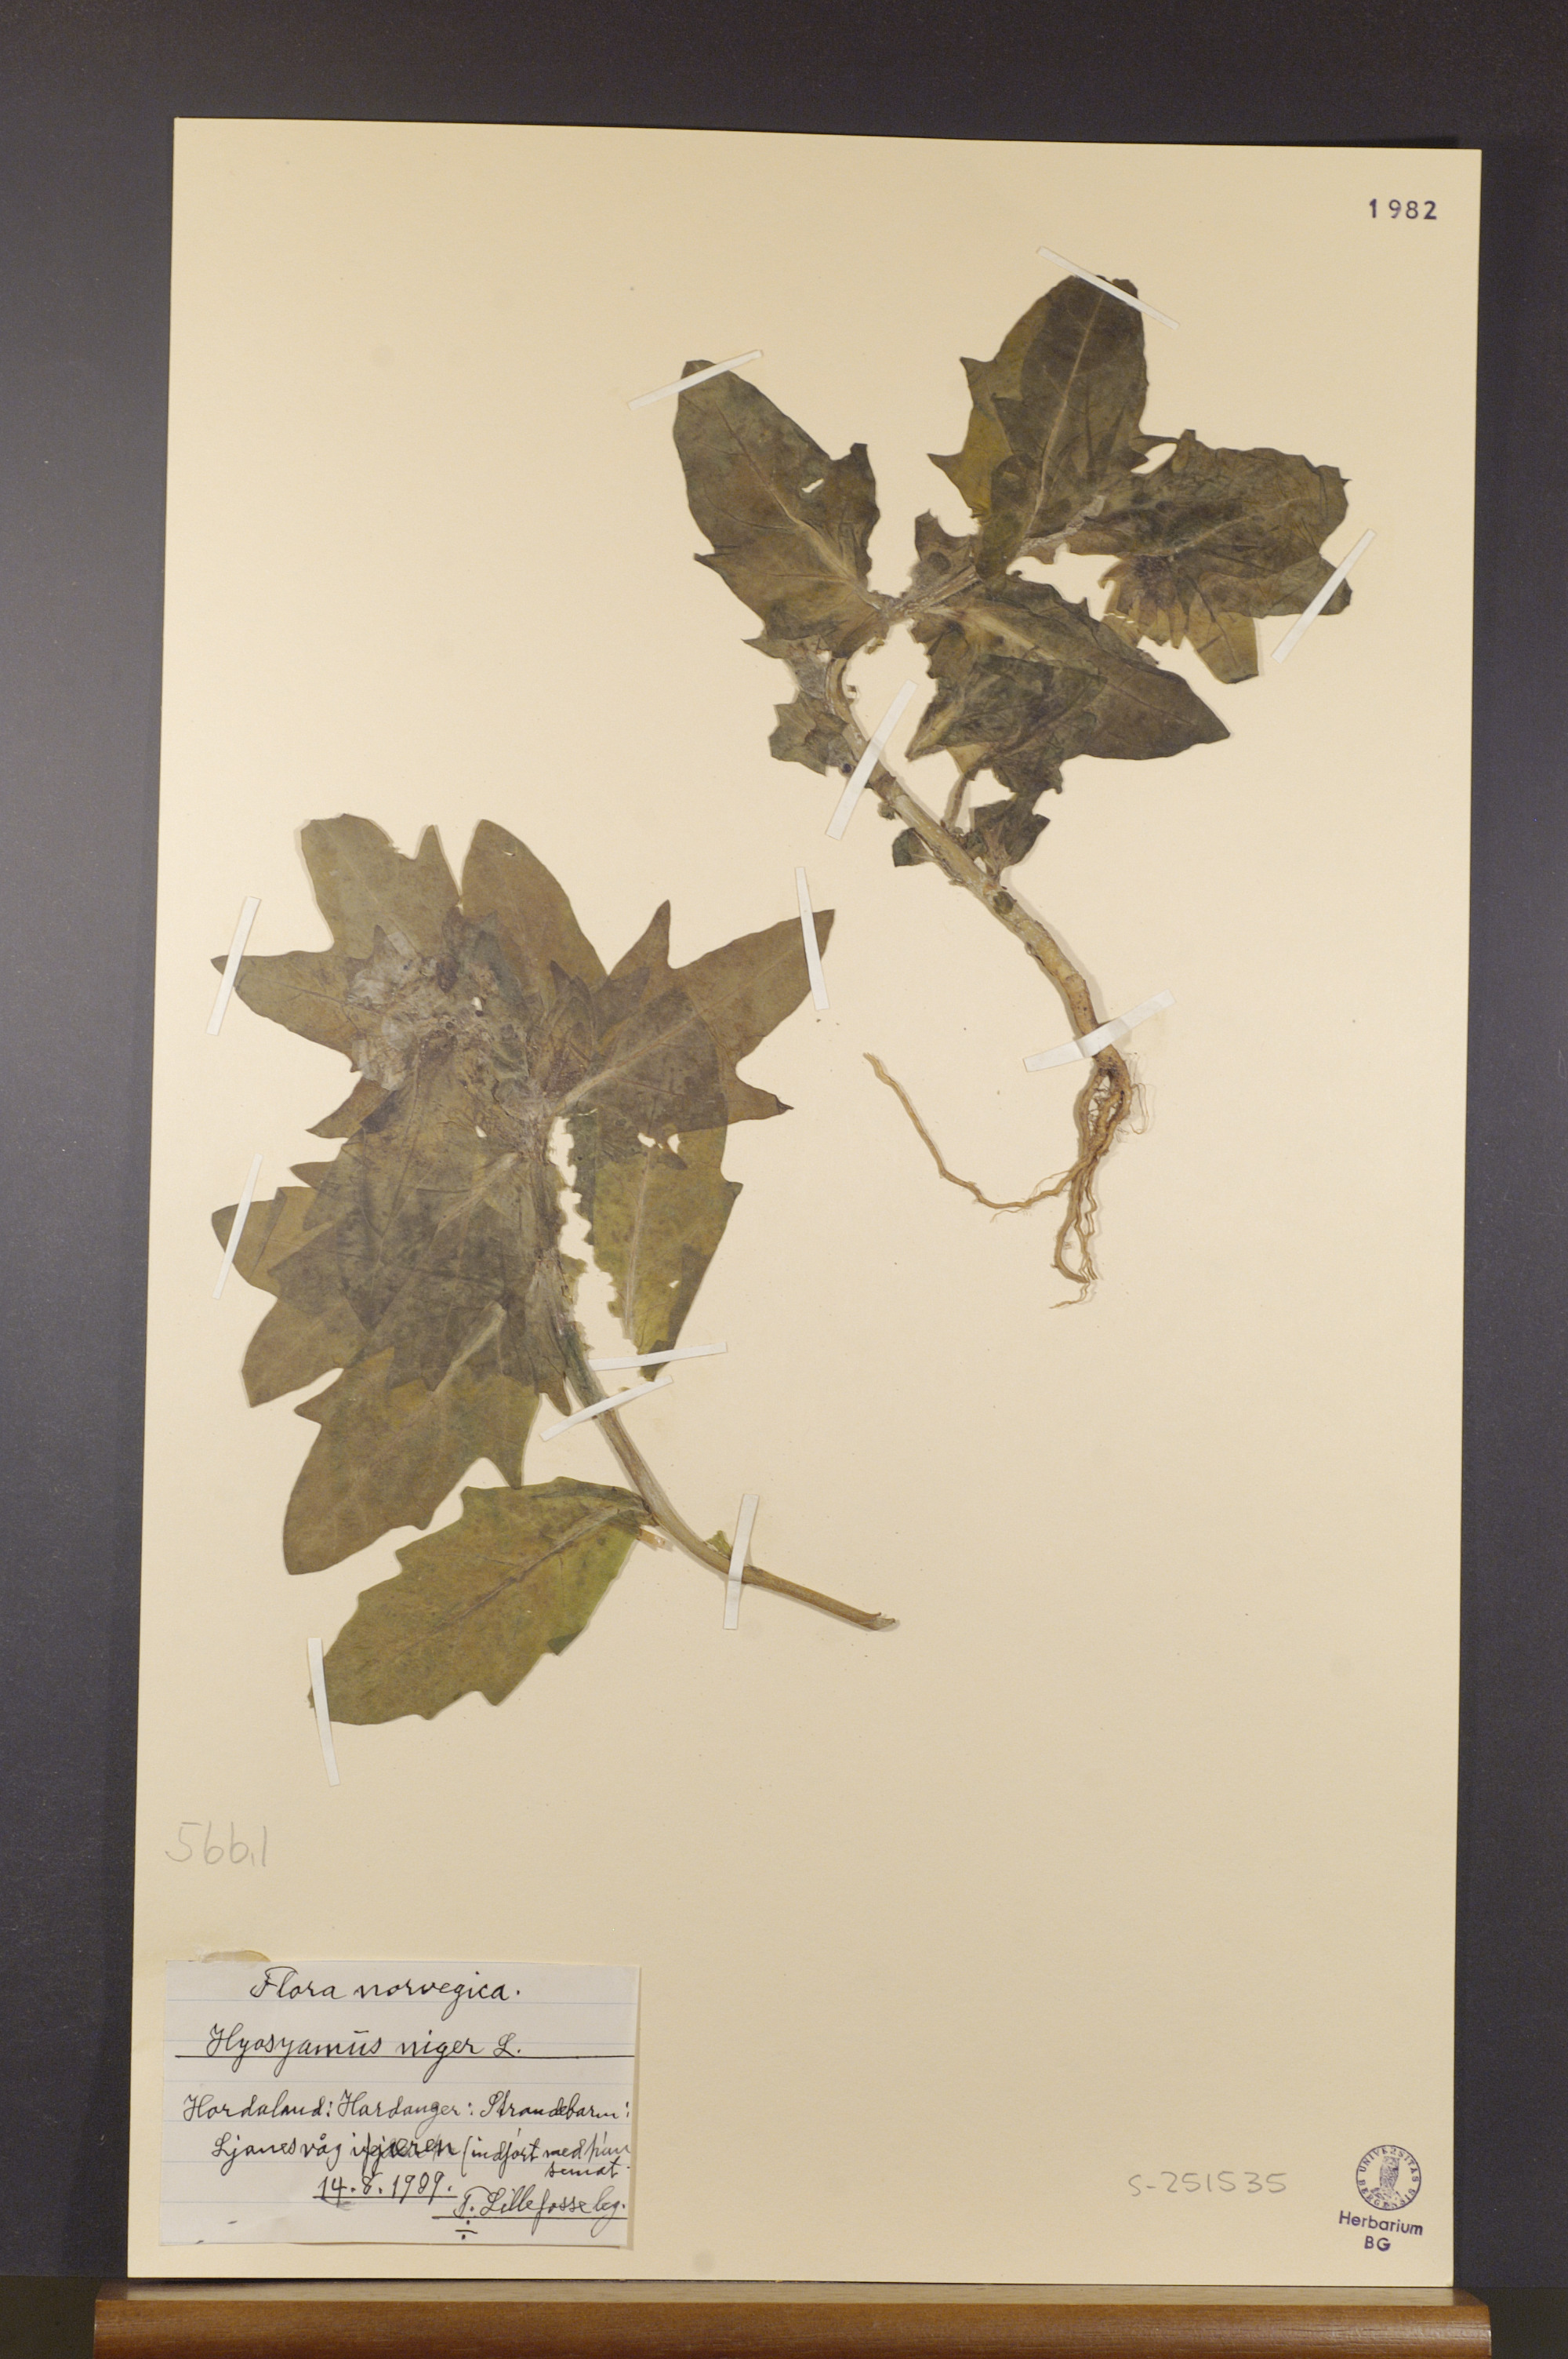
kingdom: Plantae
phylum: Tracheophyta
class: Magnoliopsida
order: Solanales
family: Solanaceae
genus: Hyoscyamus
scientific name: Hyoscyamus niger
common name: Henbane
